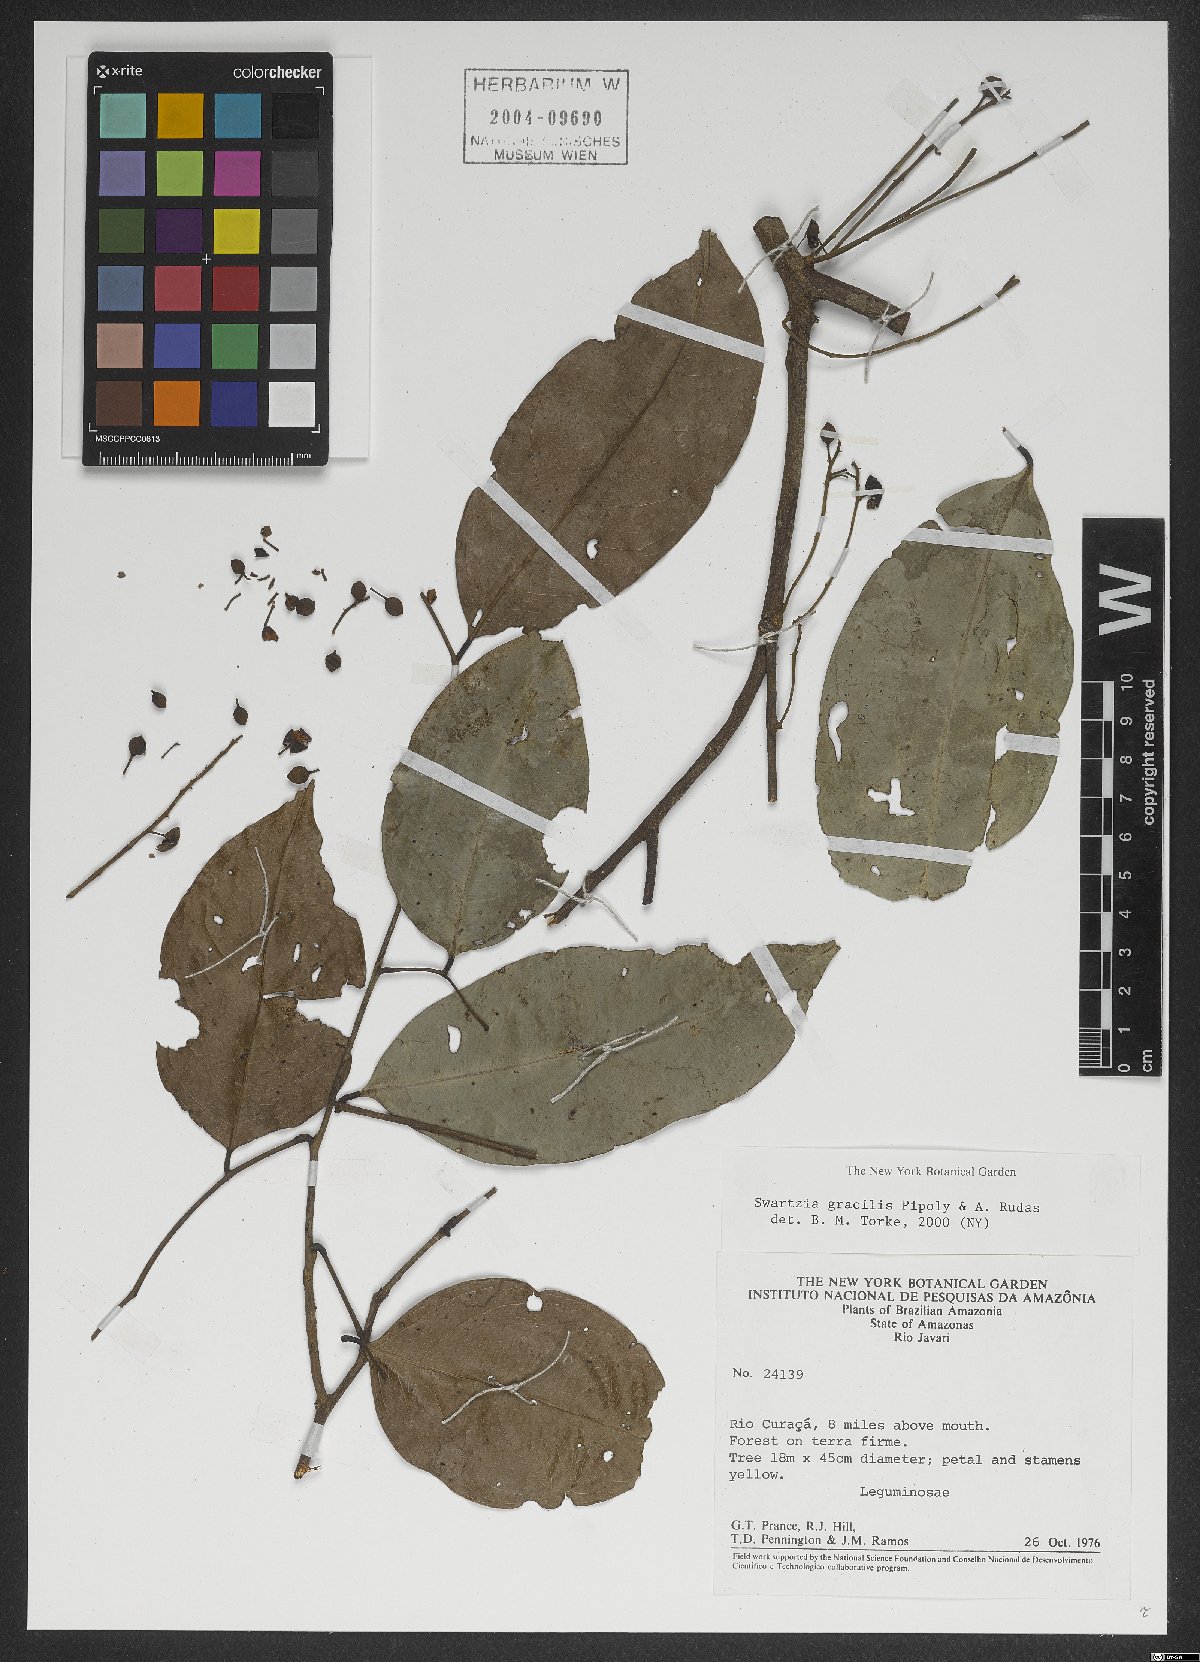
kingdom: Plantae
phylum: Tracheophyta
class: Magnoliopsida
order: Fabales
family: Fabaceae
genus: Swartzia
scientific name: Swartzia gracilis
